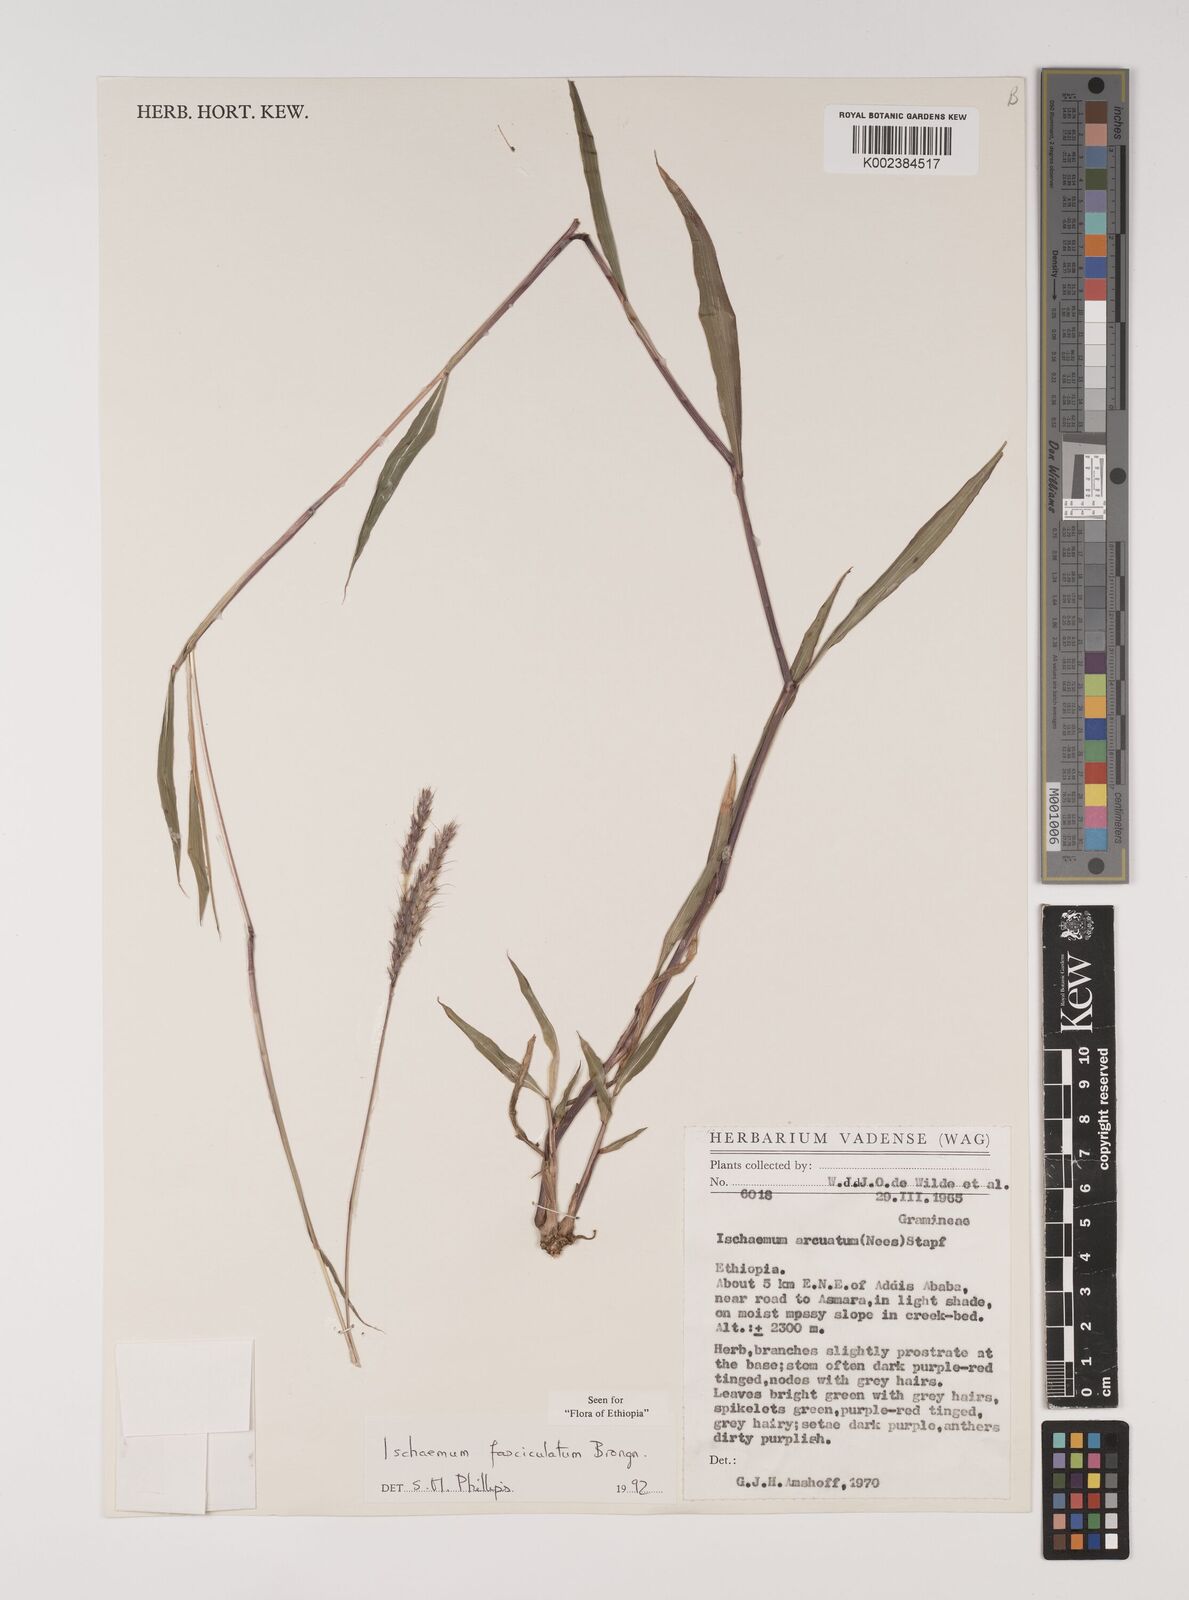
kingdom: Plantae
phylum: Tracheophyta
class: Liliopsida
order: Poales
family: Poaceae
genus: Ischaemum
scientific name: Ischaemum polystachyum
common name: Paddle grass
